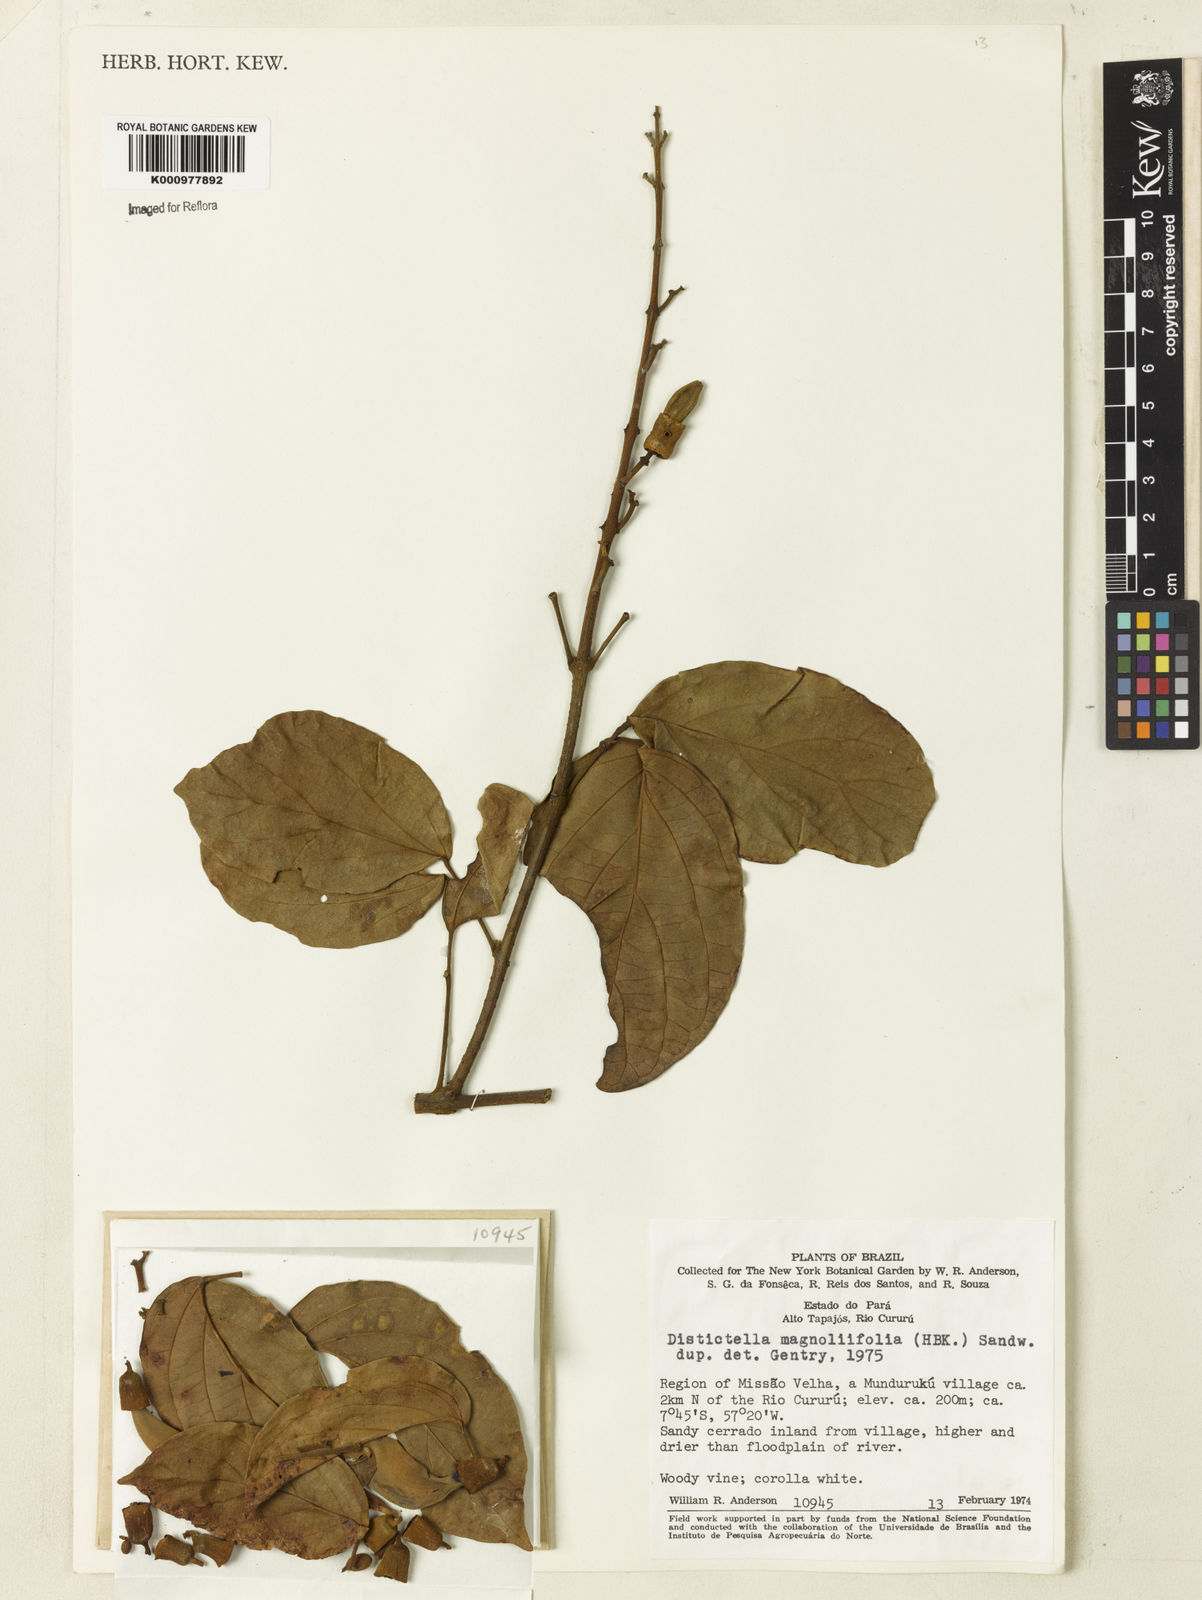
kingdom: Plantae
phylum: Tracheophyta
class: Magnoliopsida
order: Lamiales
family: Bignoniaceae
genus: Amphilophium
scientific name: Amphilophium
